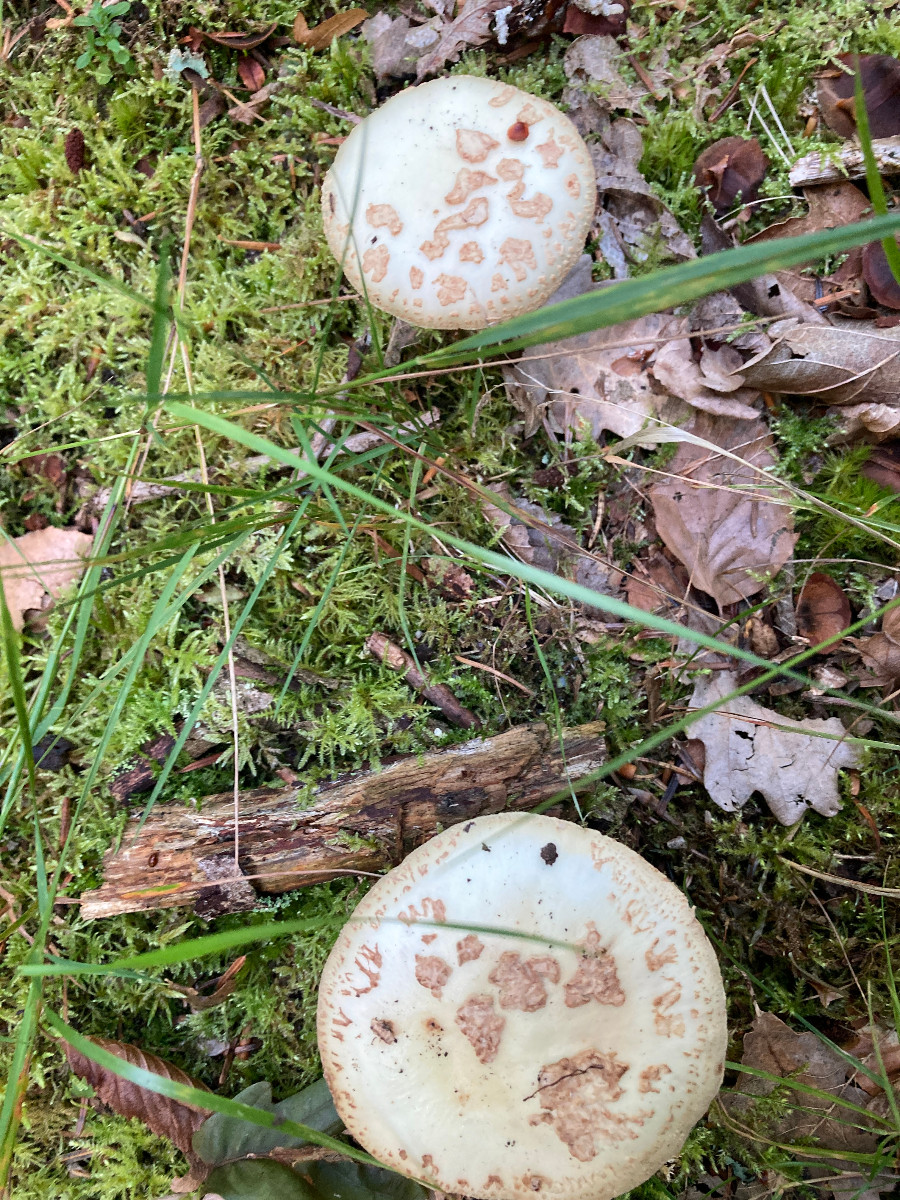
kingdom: Fungi
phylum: Basidiomycota
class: Agaricomycetes
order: Agaricales
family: Amanitaceae
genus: Amanita
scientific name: Amanita citrina
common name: kugleknoldet fluesvamp
